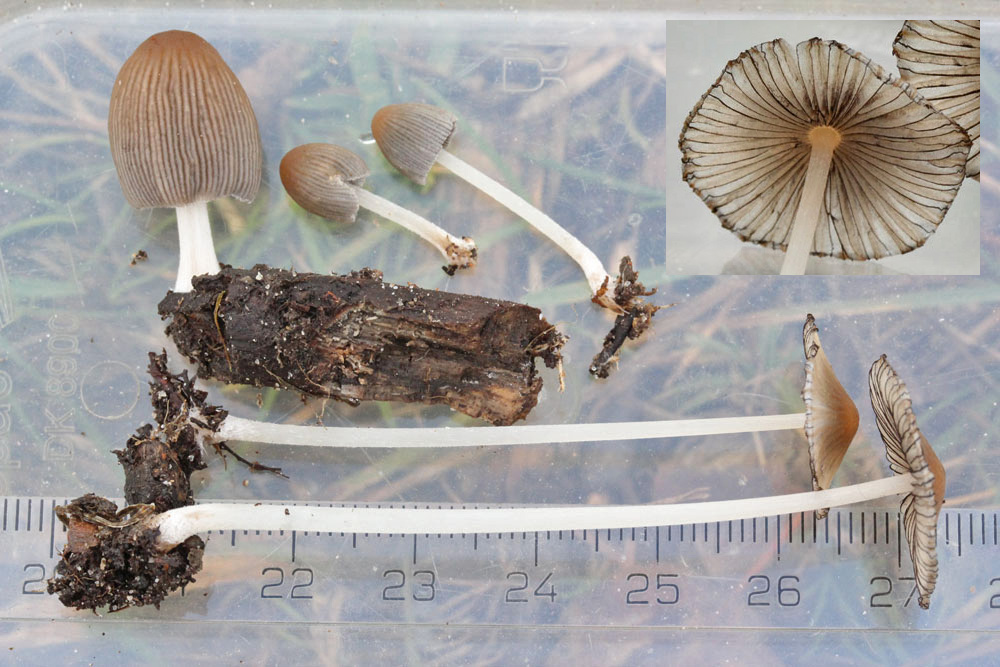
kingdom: Fungi
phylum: Basidiomycota
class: Agaricomycetes
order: Agaricales
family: Psathyrellaceae
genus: Tulosesus
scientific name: Tulosesus uljei
